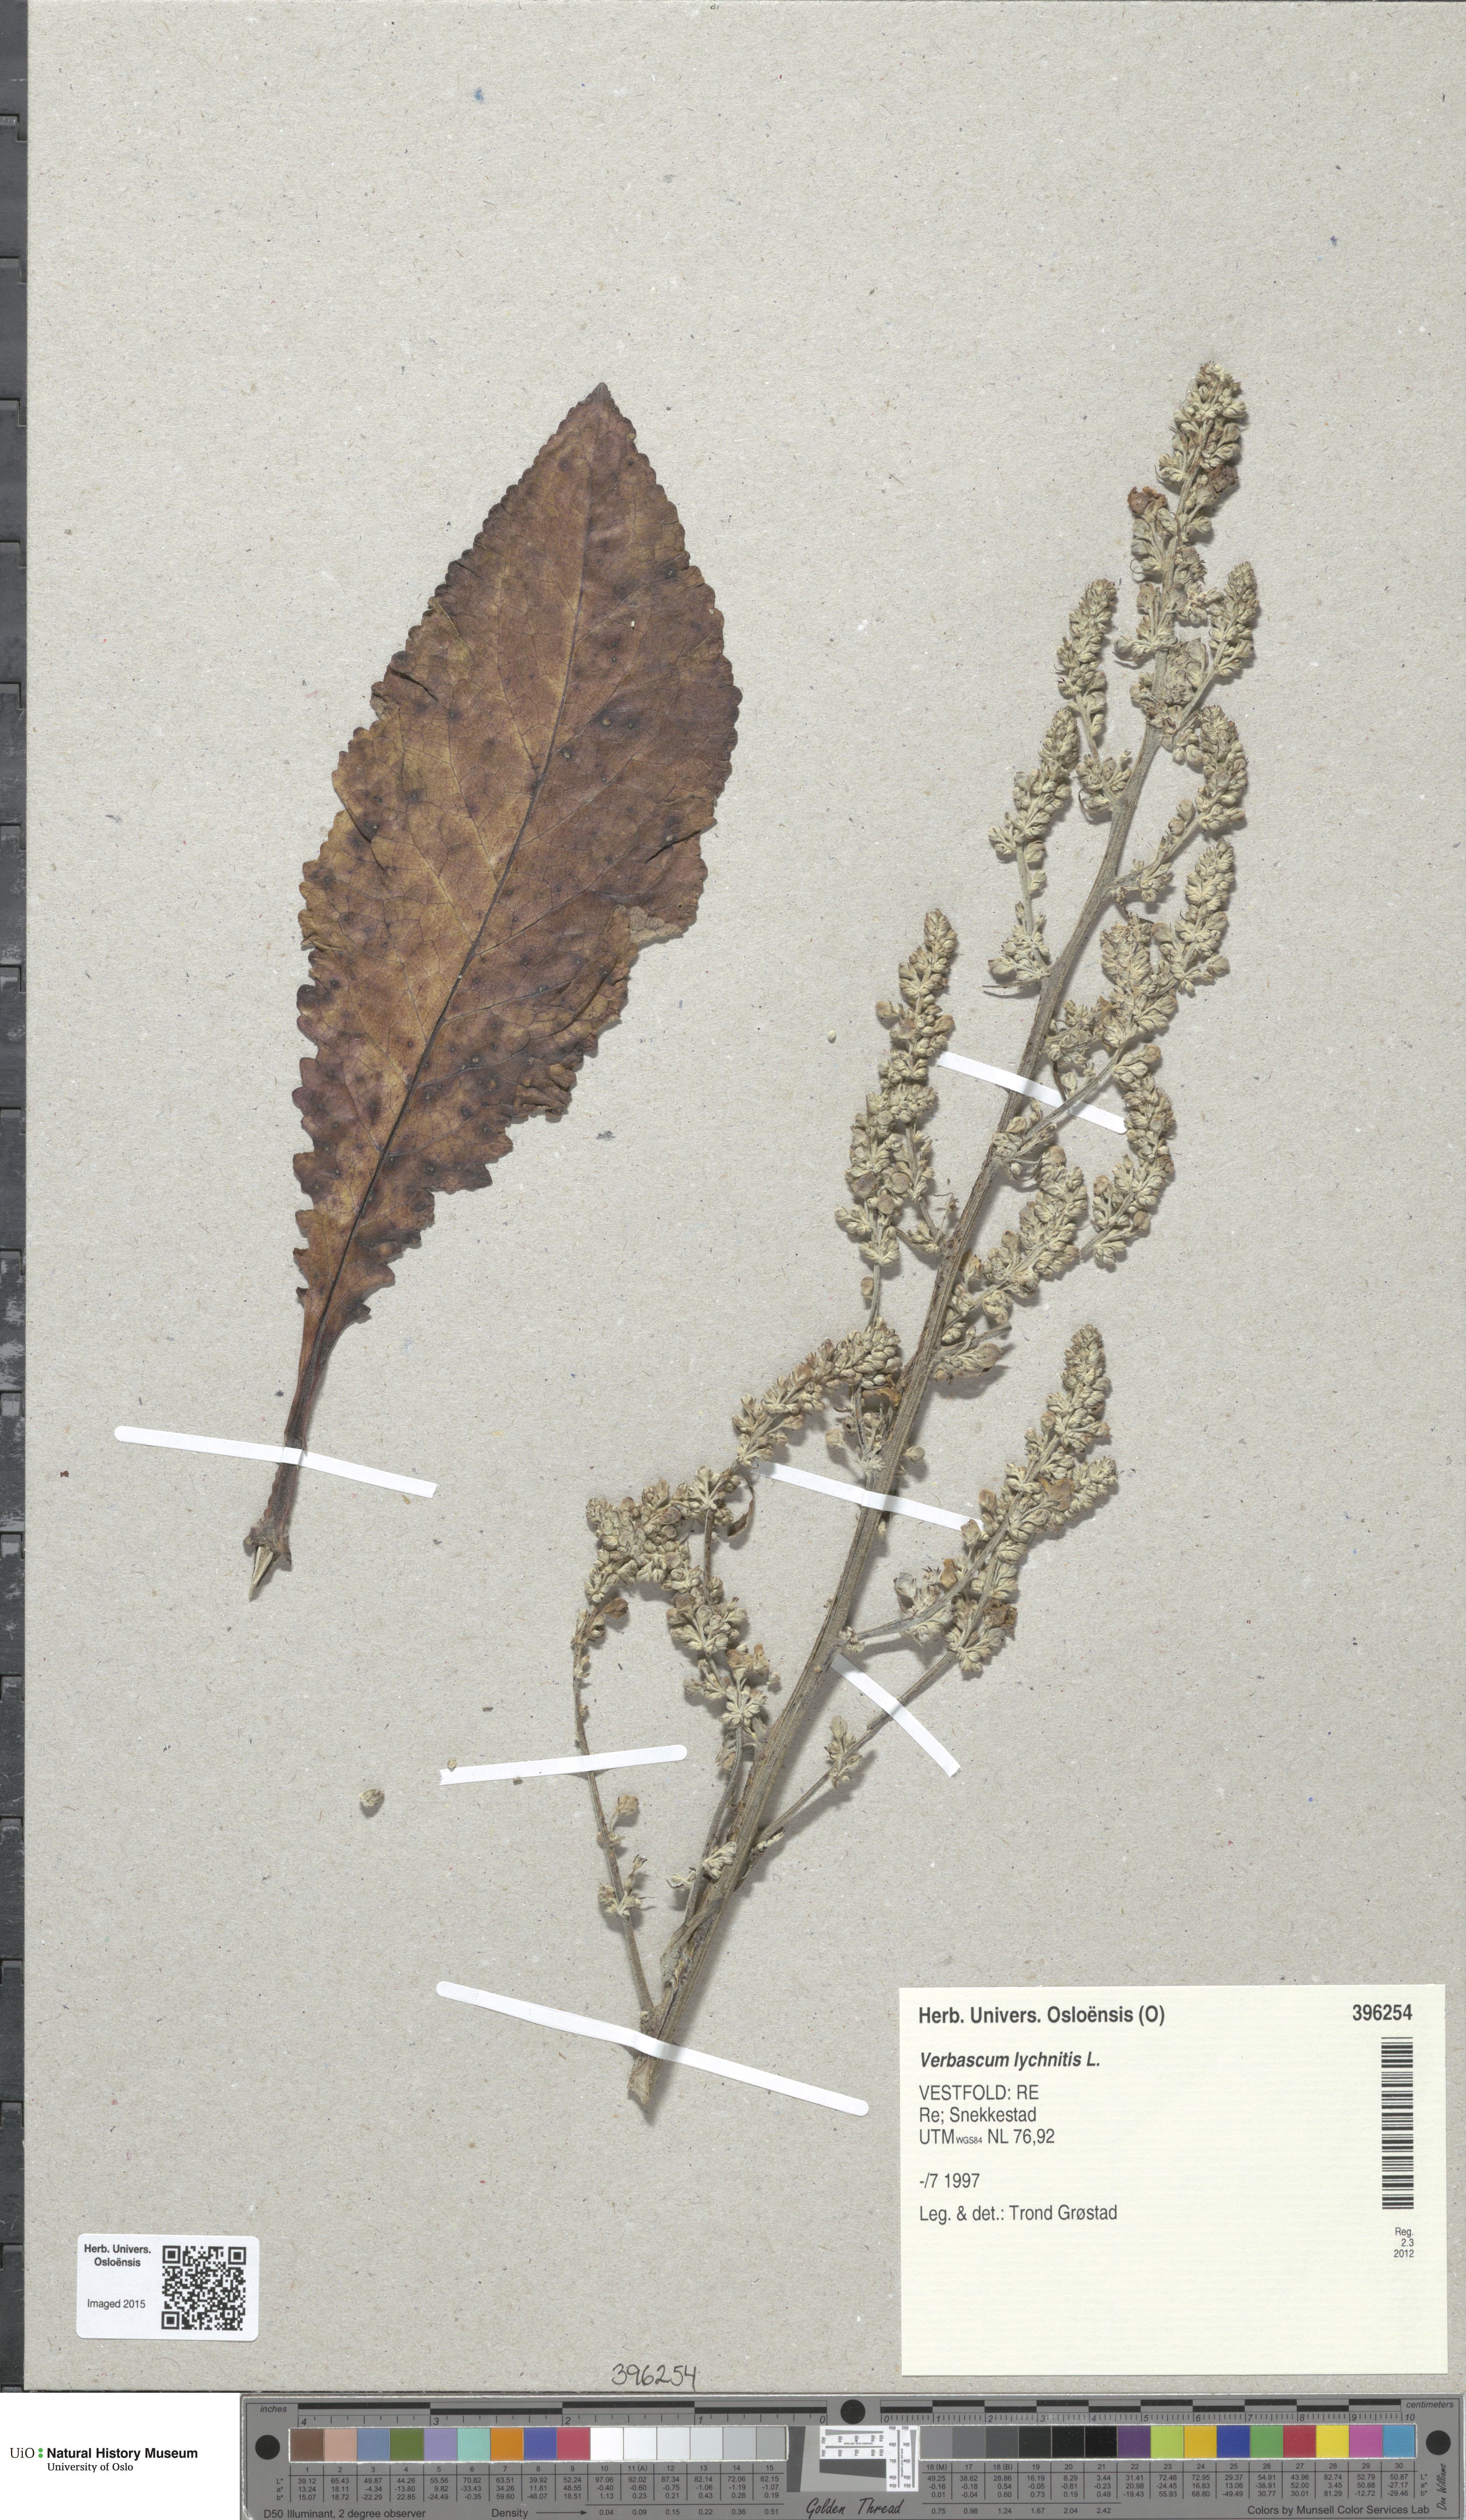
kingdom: Plantae
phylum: Tracheophyta
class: Magnoliopsida
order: Lamiales
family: Scrophulariaceae
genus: Verbascum
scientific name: Verbascum lychnitis
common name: White mullein
